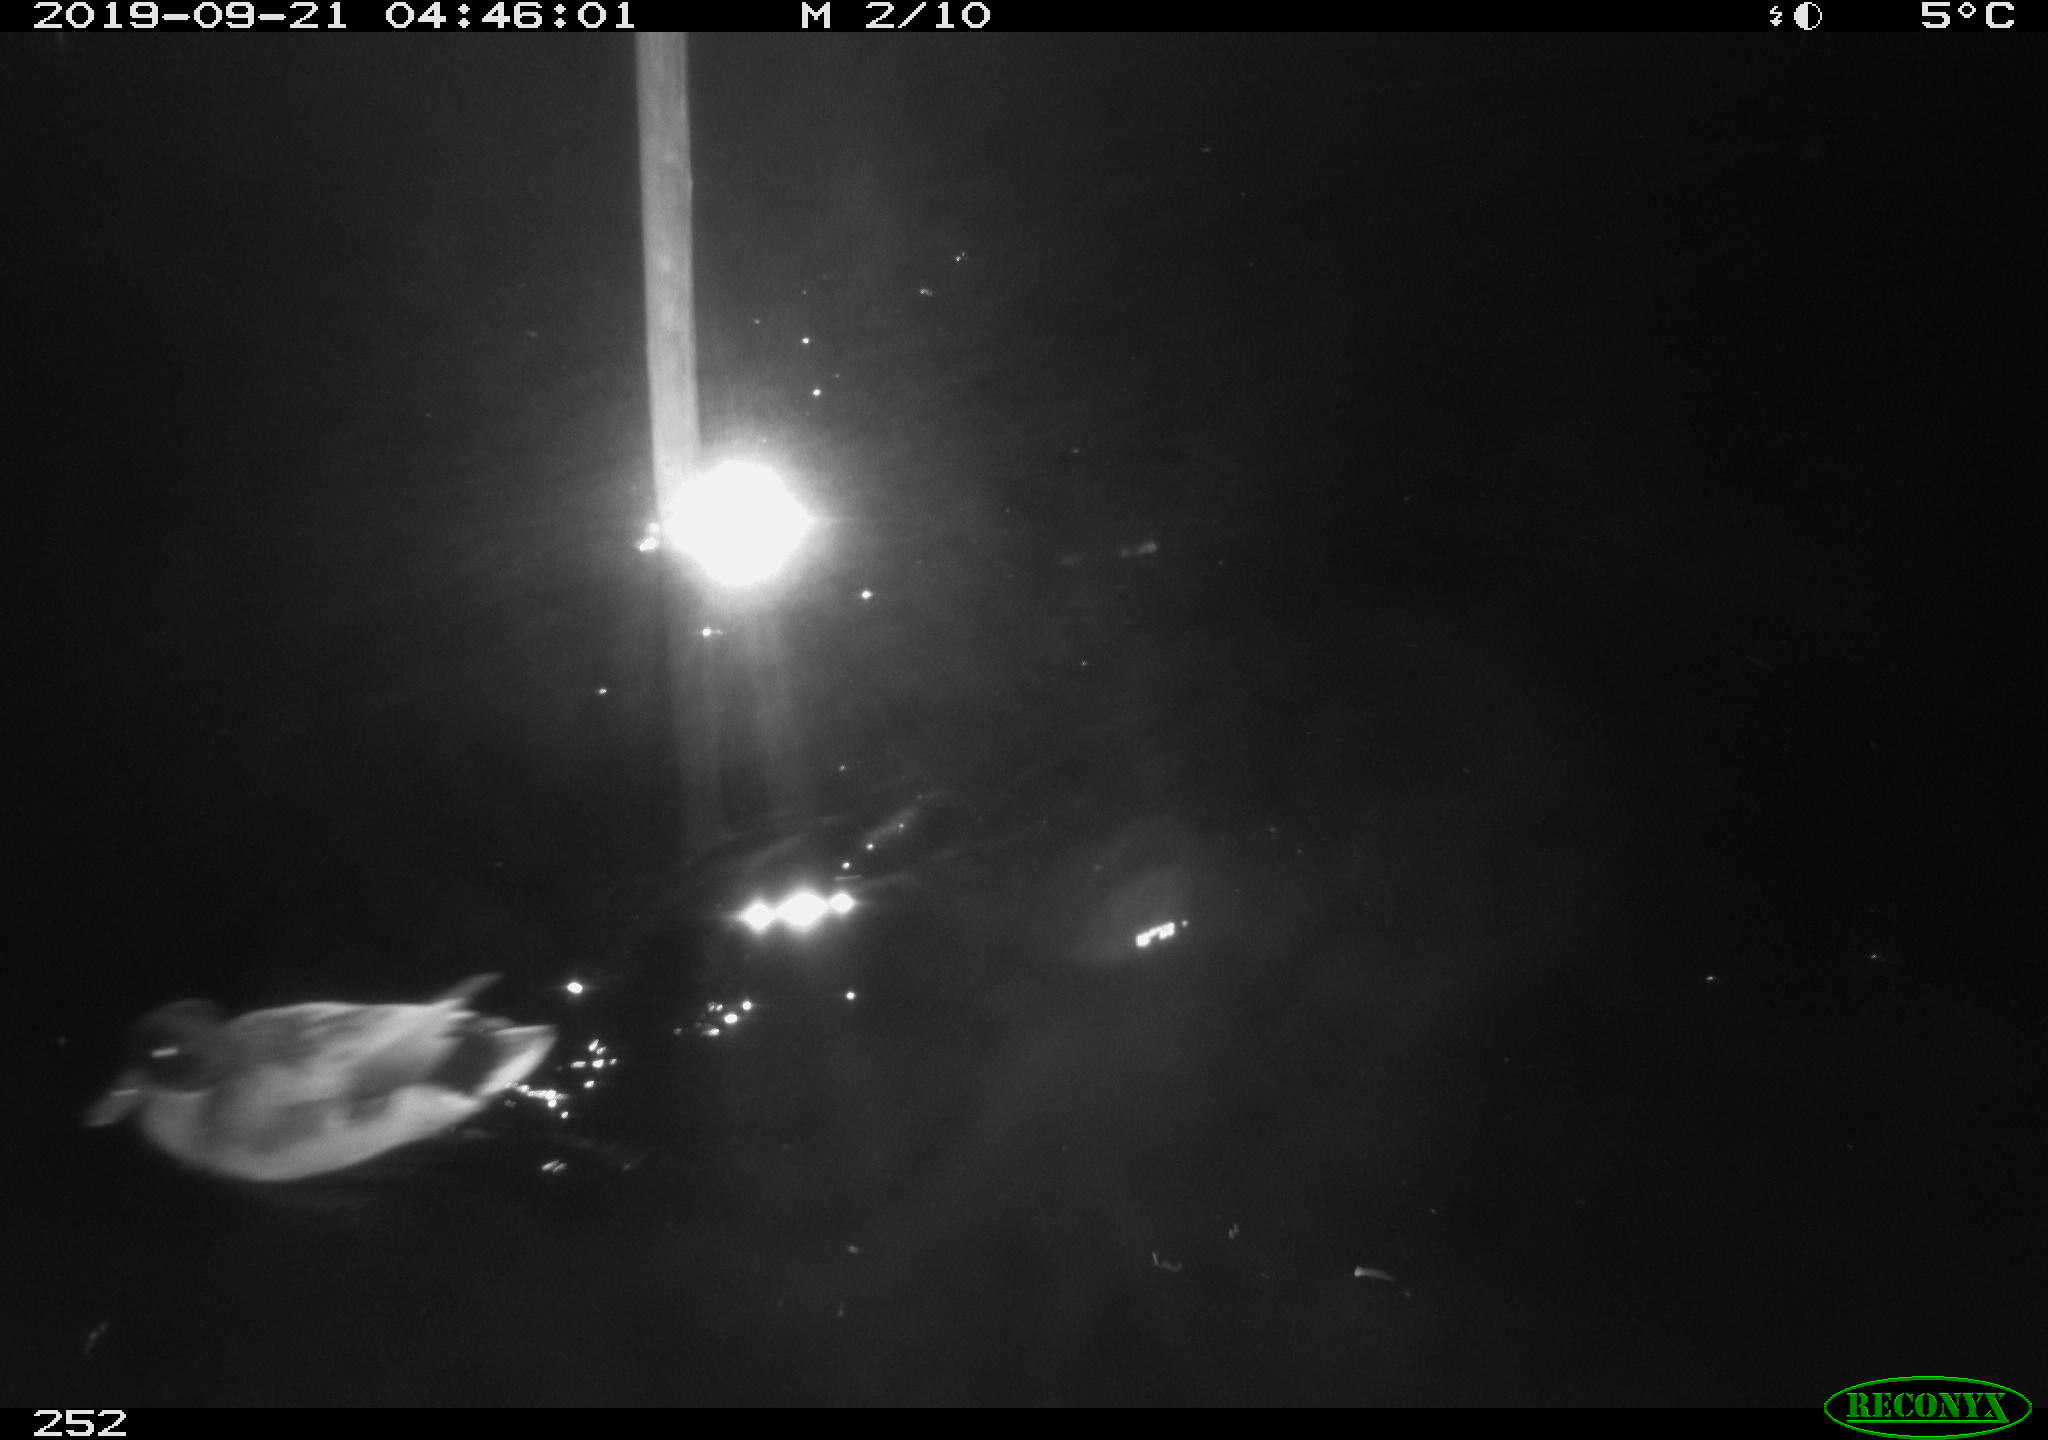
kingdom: Animalia
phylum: Chordata
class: Aves
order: Anseriformes
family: Anatidae
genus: Anas
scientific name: Anas platyrhynchos
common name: Mallard
